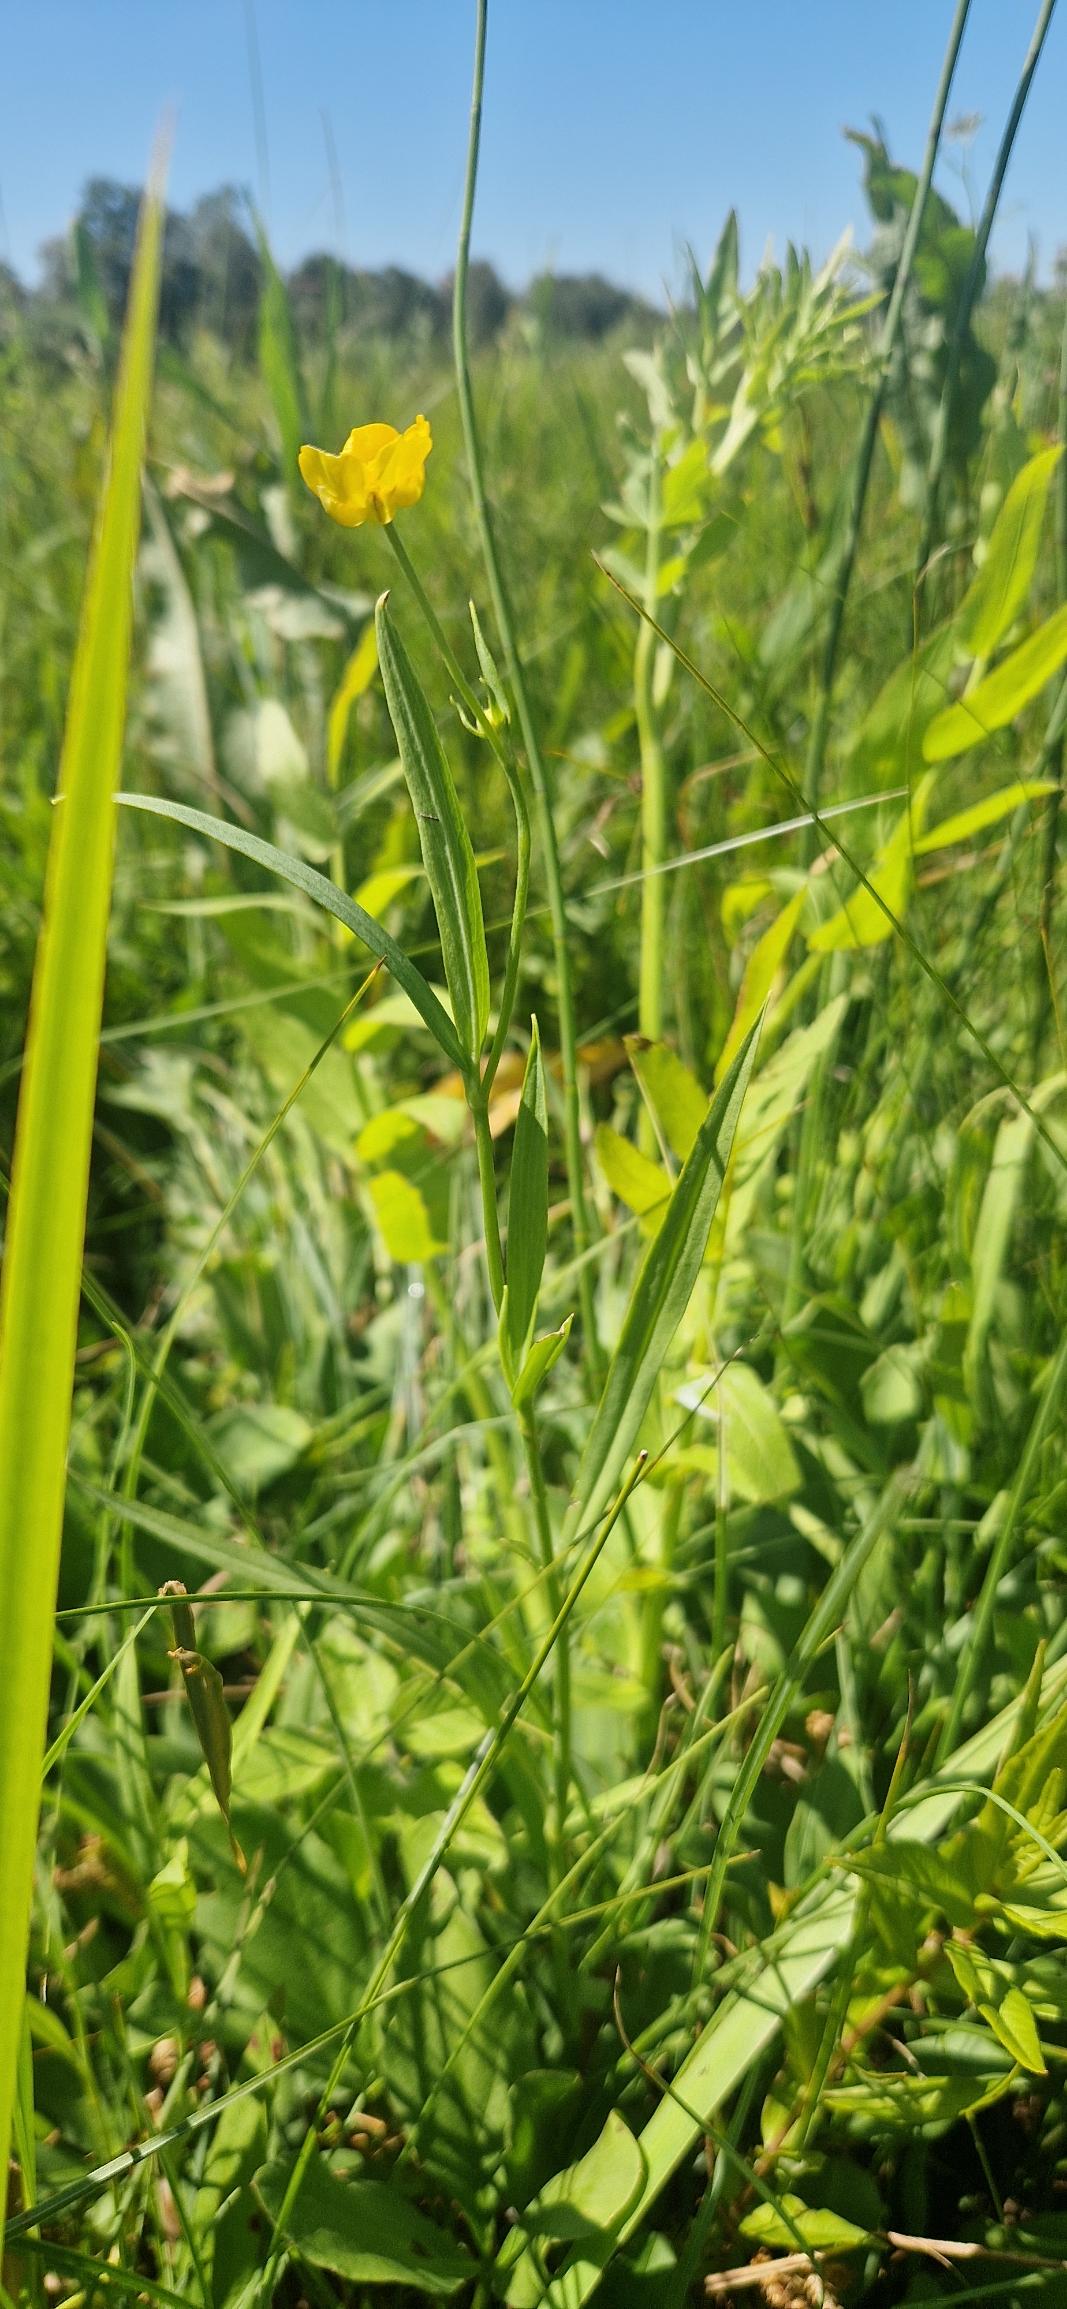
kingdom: Plantae
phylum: Tracheophyta
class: Magnoliopsida
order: Apiales
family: Apiaceae
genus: Sium
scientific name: Sium latifolium
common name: Bredbladet mærke
